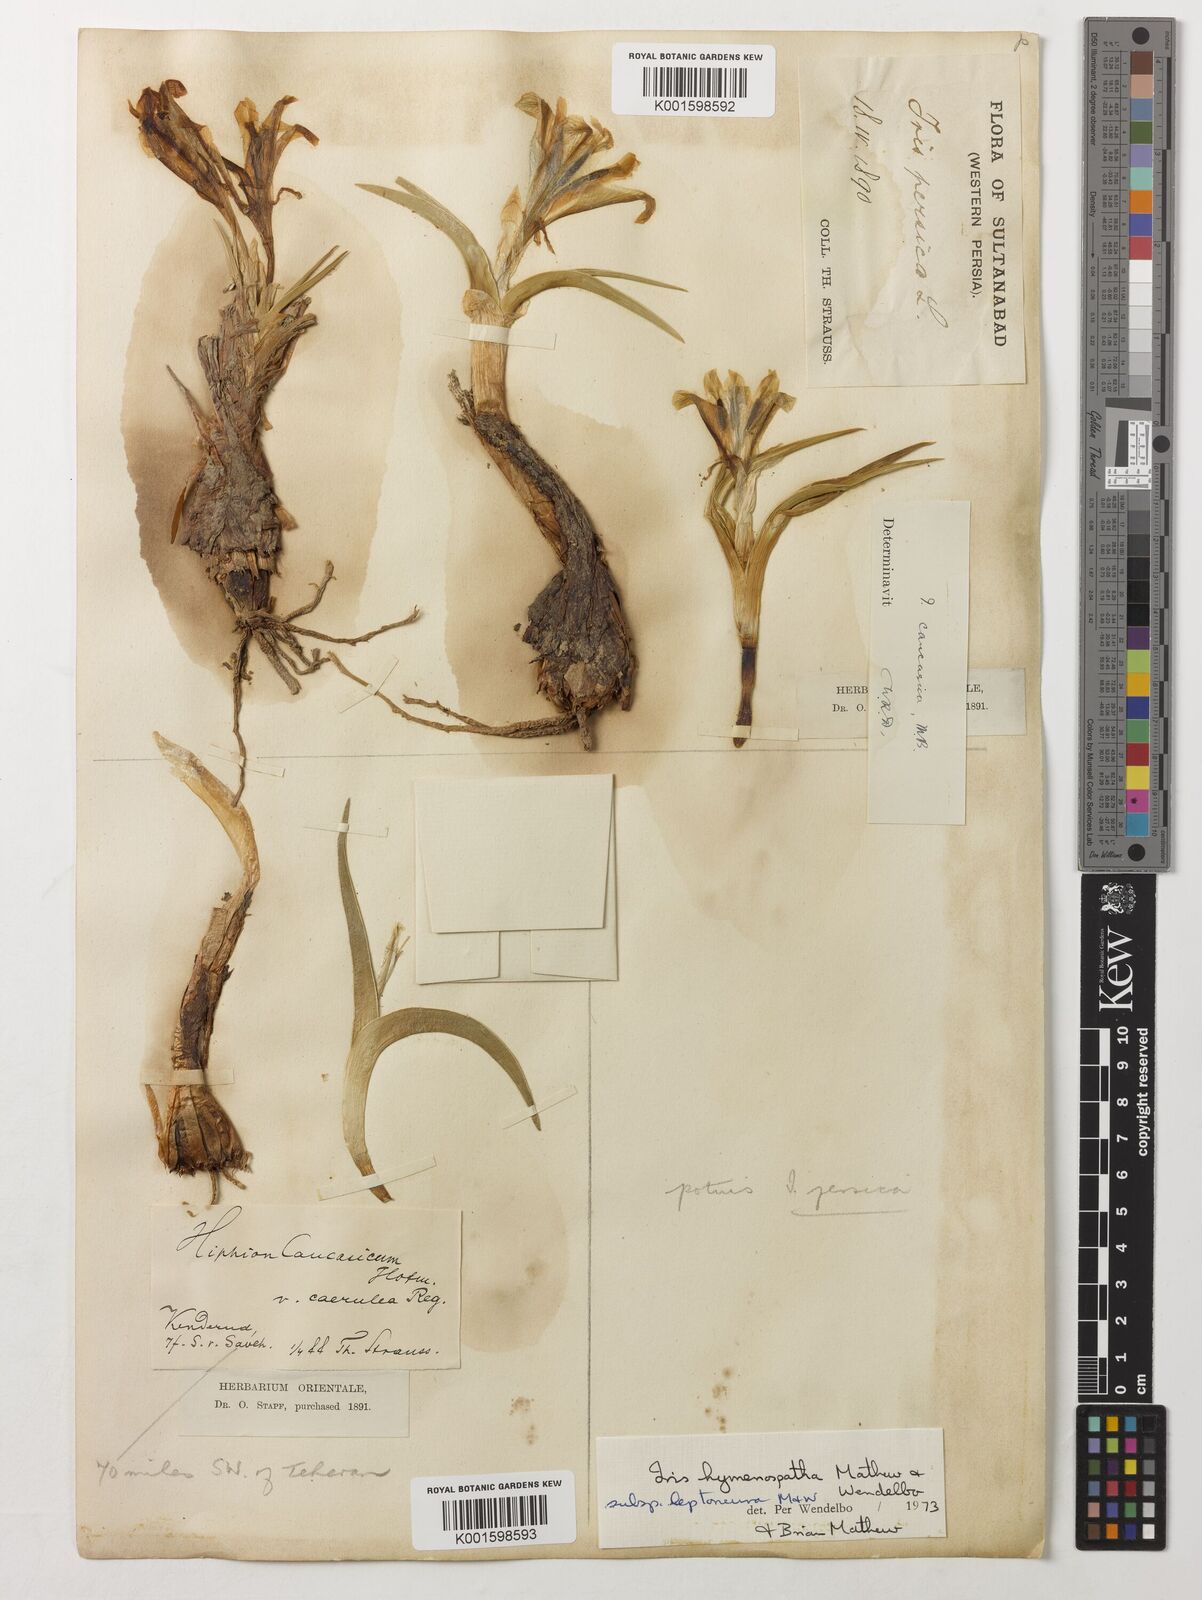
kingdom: Plantae
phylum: Tracheophyta
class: Liliopsida
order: Asparagales
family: Iridaceae
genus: Iris
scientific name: Iris hymenospatha
